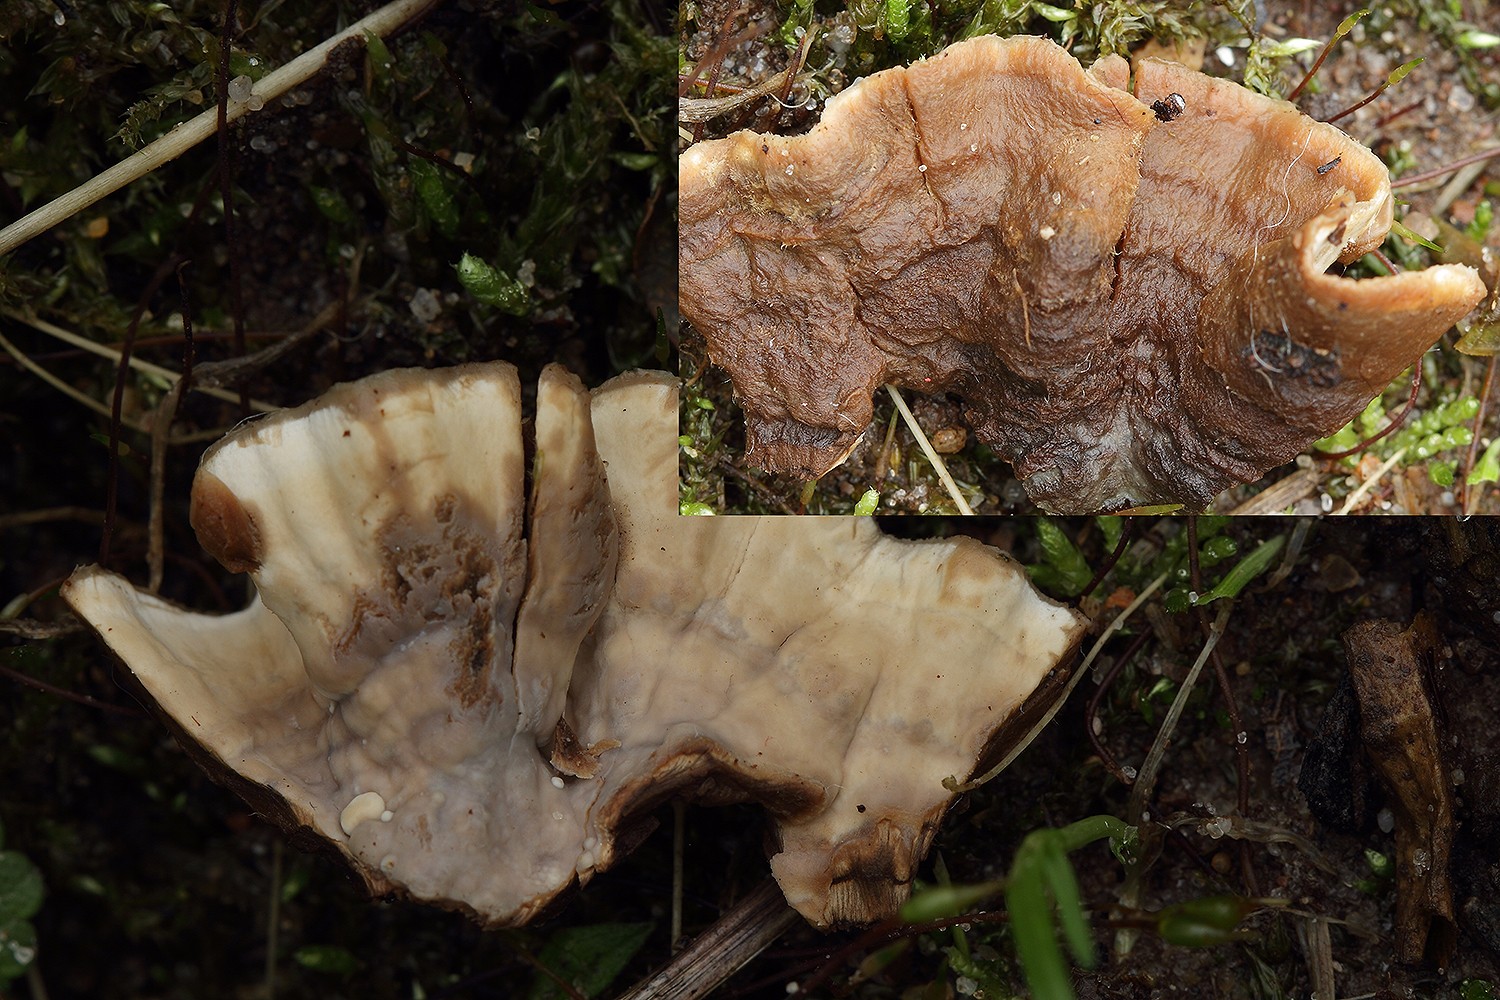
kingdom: Fungi
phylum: Basidiomycota
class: Agaricomycetes
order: Russulales
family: Hericiaceae
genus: Laxitextum
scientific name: Laxitextum bicolor
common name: tvefarvet filtskind
